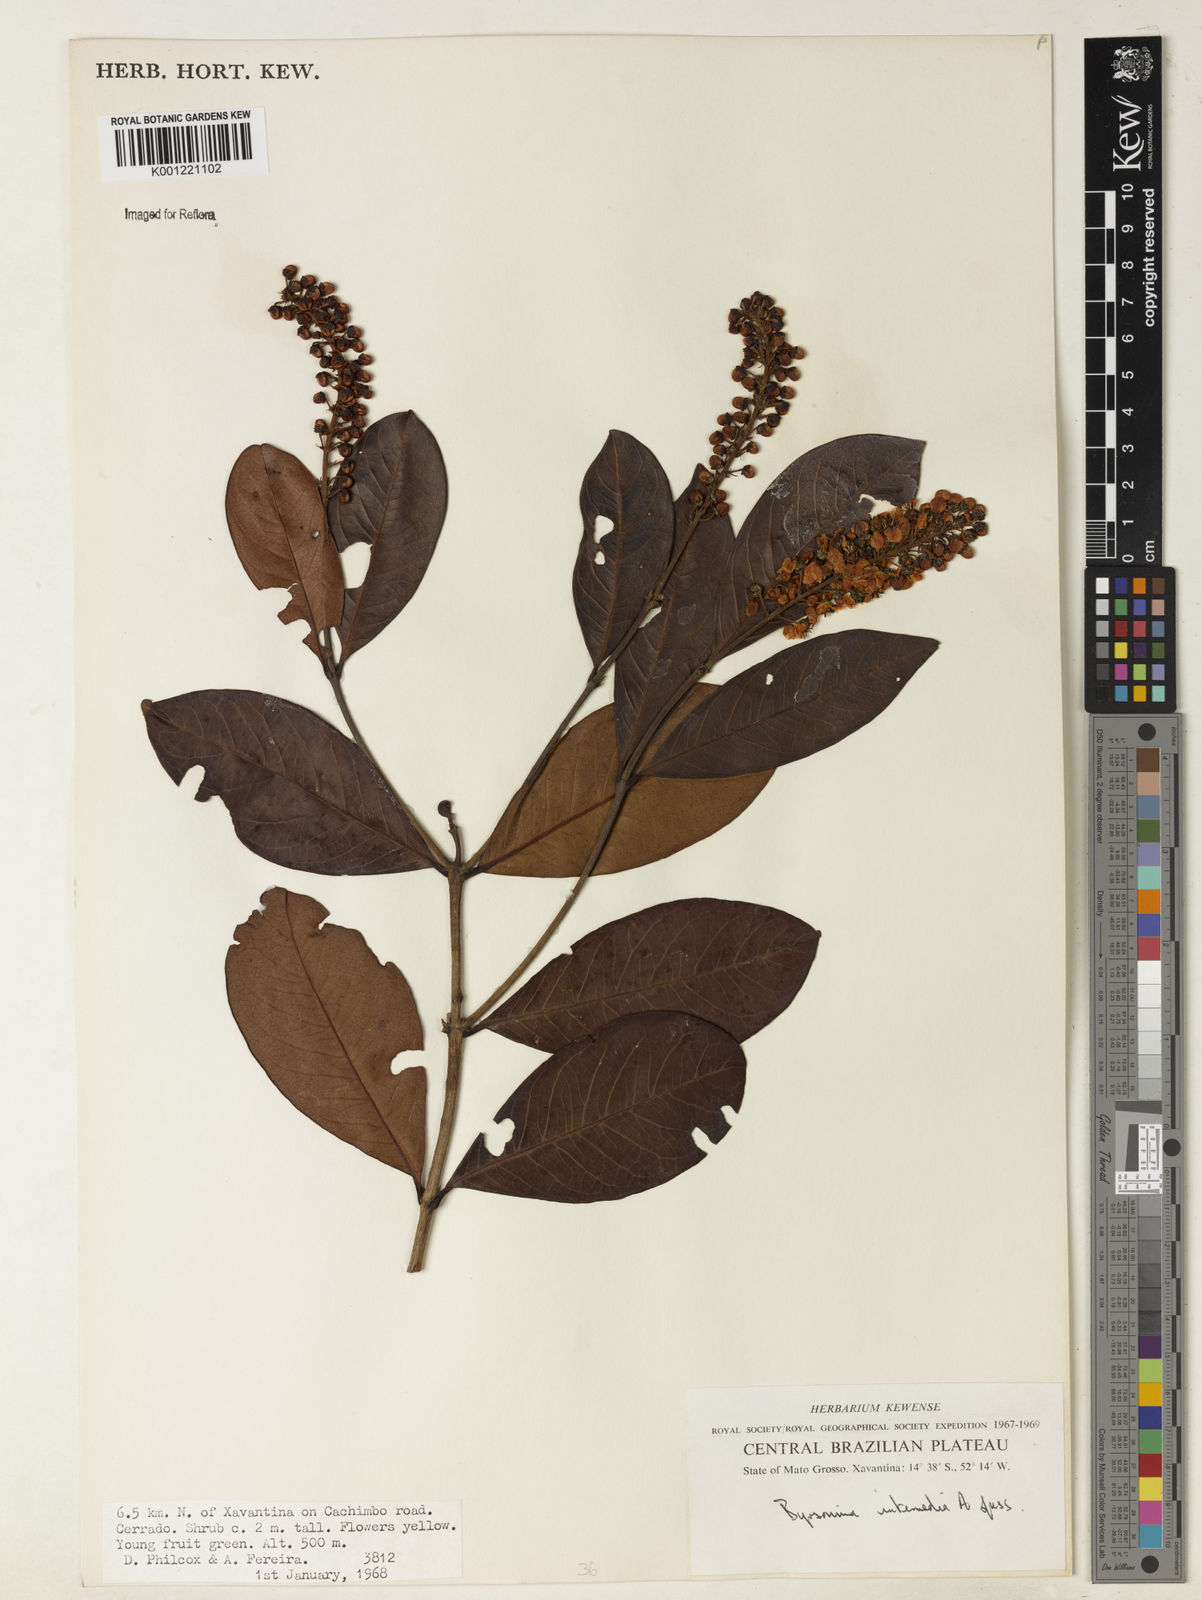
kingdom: Plantae
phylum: Tracheophyta
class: Magnoliopsida
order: Malpighiales
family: Malpighiaceae
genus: Byrsonima
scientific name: Byrsonima intermedia
